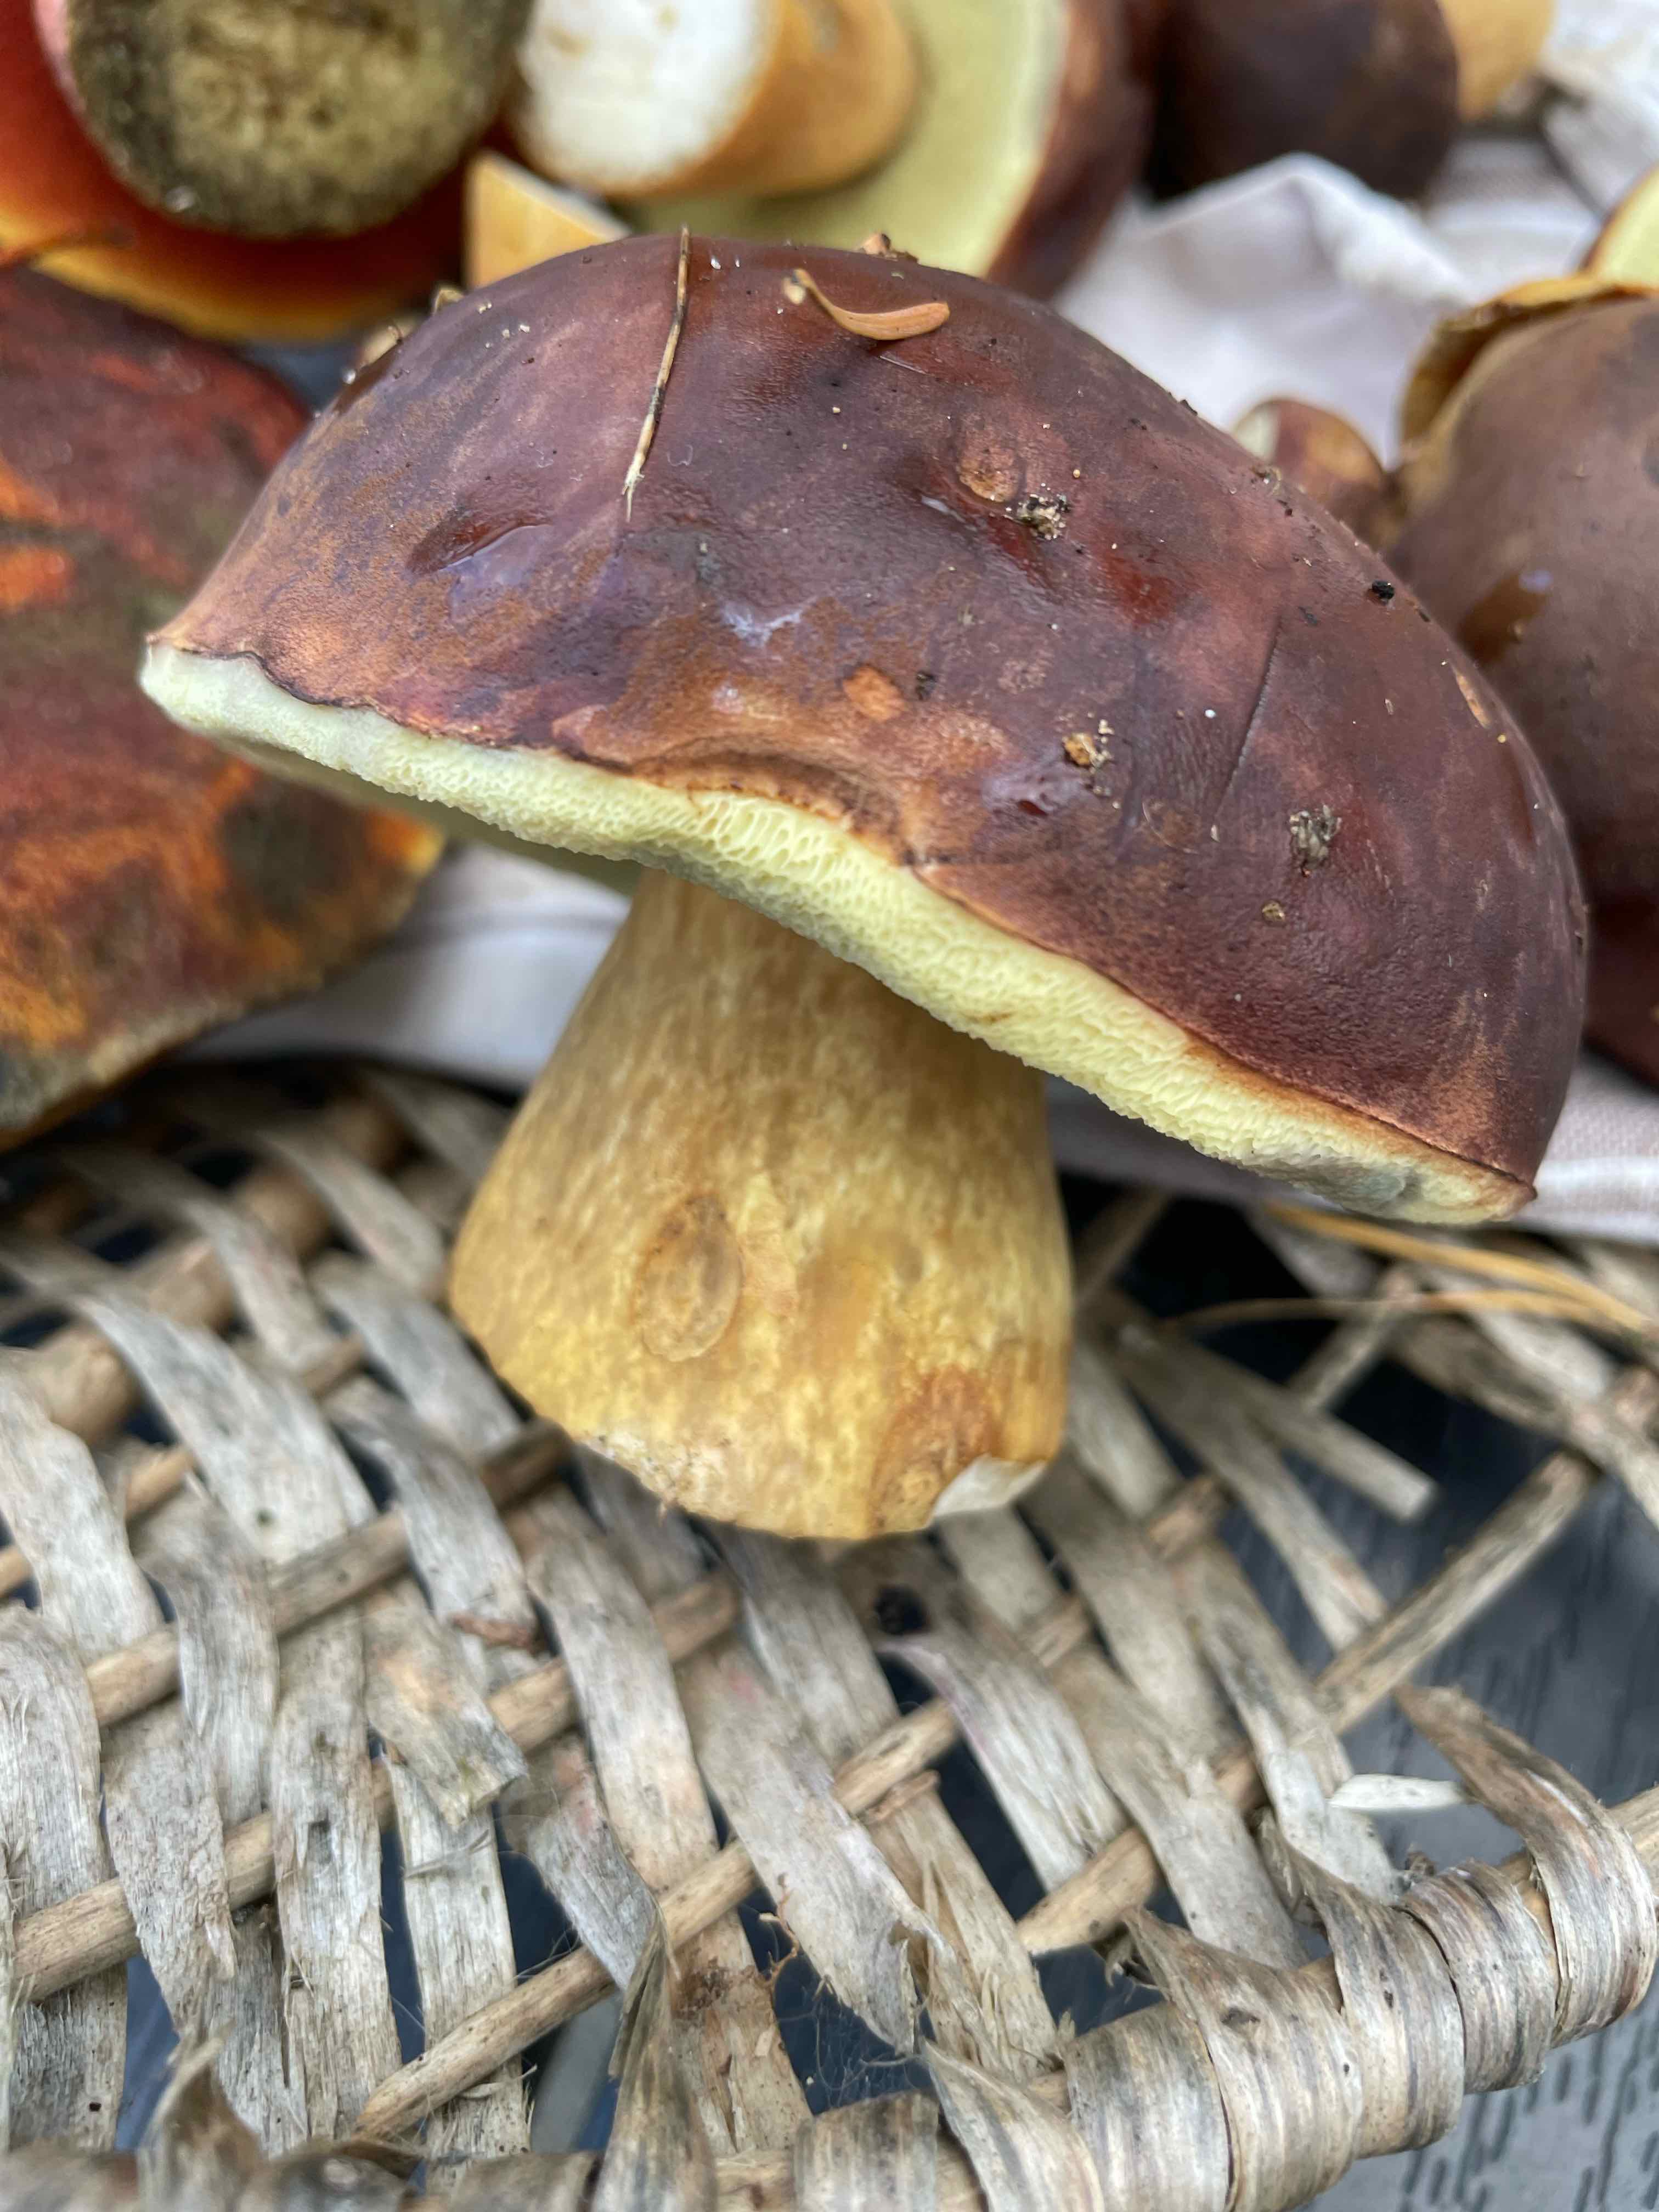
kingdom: Fungi
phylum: Basidiomycota
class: Agaricomycetes
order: Boletales
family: Boletaceae
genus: Imleria
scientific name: Imleria badia
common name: brunstokket rørhat
